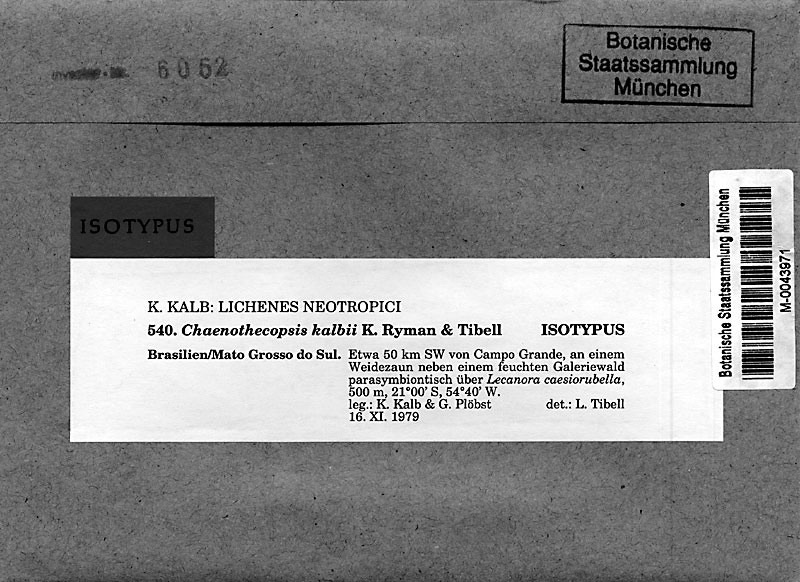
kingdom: Fungi
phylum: Ascomycota
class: Eurotiomycetes
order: Mycocaliciales
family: Mycocaliciaceae
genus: Chaenothecopsis
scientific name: Chaenothecopsis kalbii
